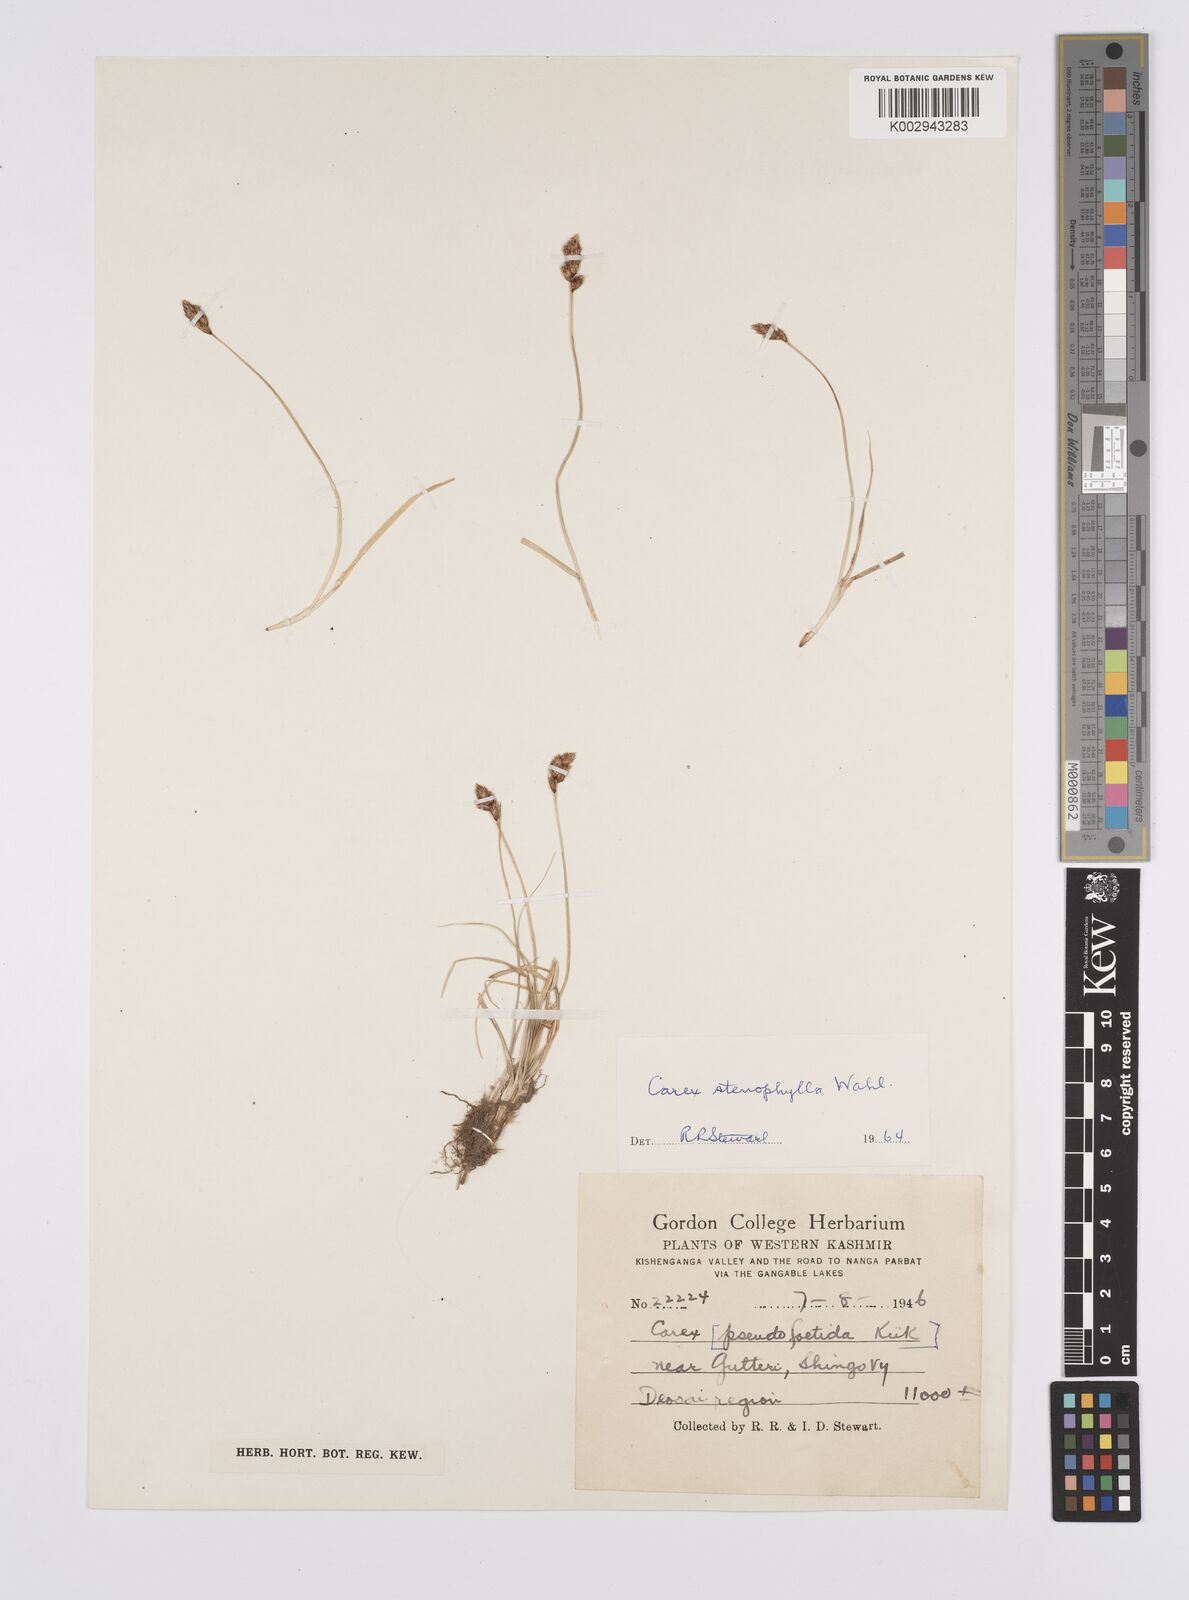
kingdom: Plantae
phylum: Tracheophyta
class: Liliopsida
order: Poales
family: Cyperaceae
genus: Carex
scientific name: Carex stenophylla
